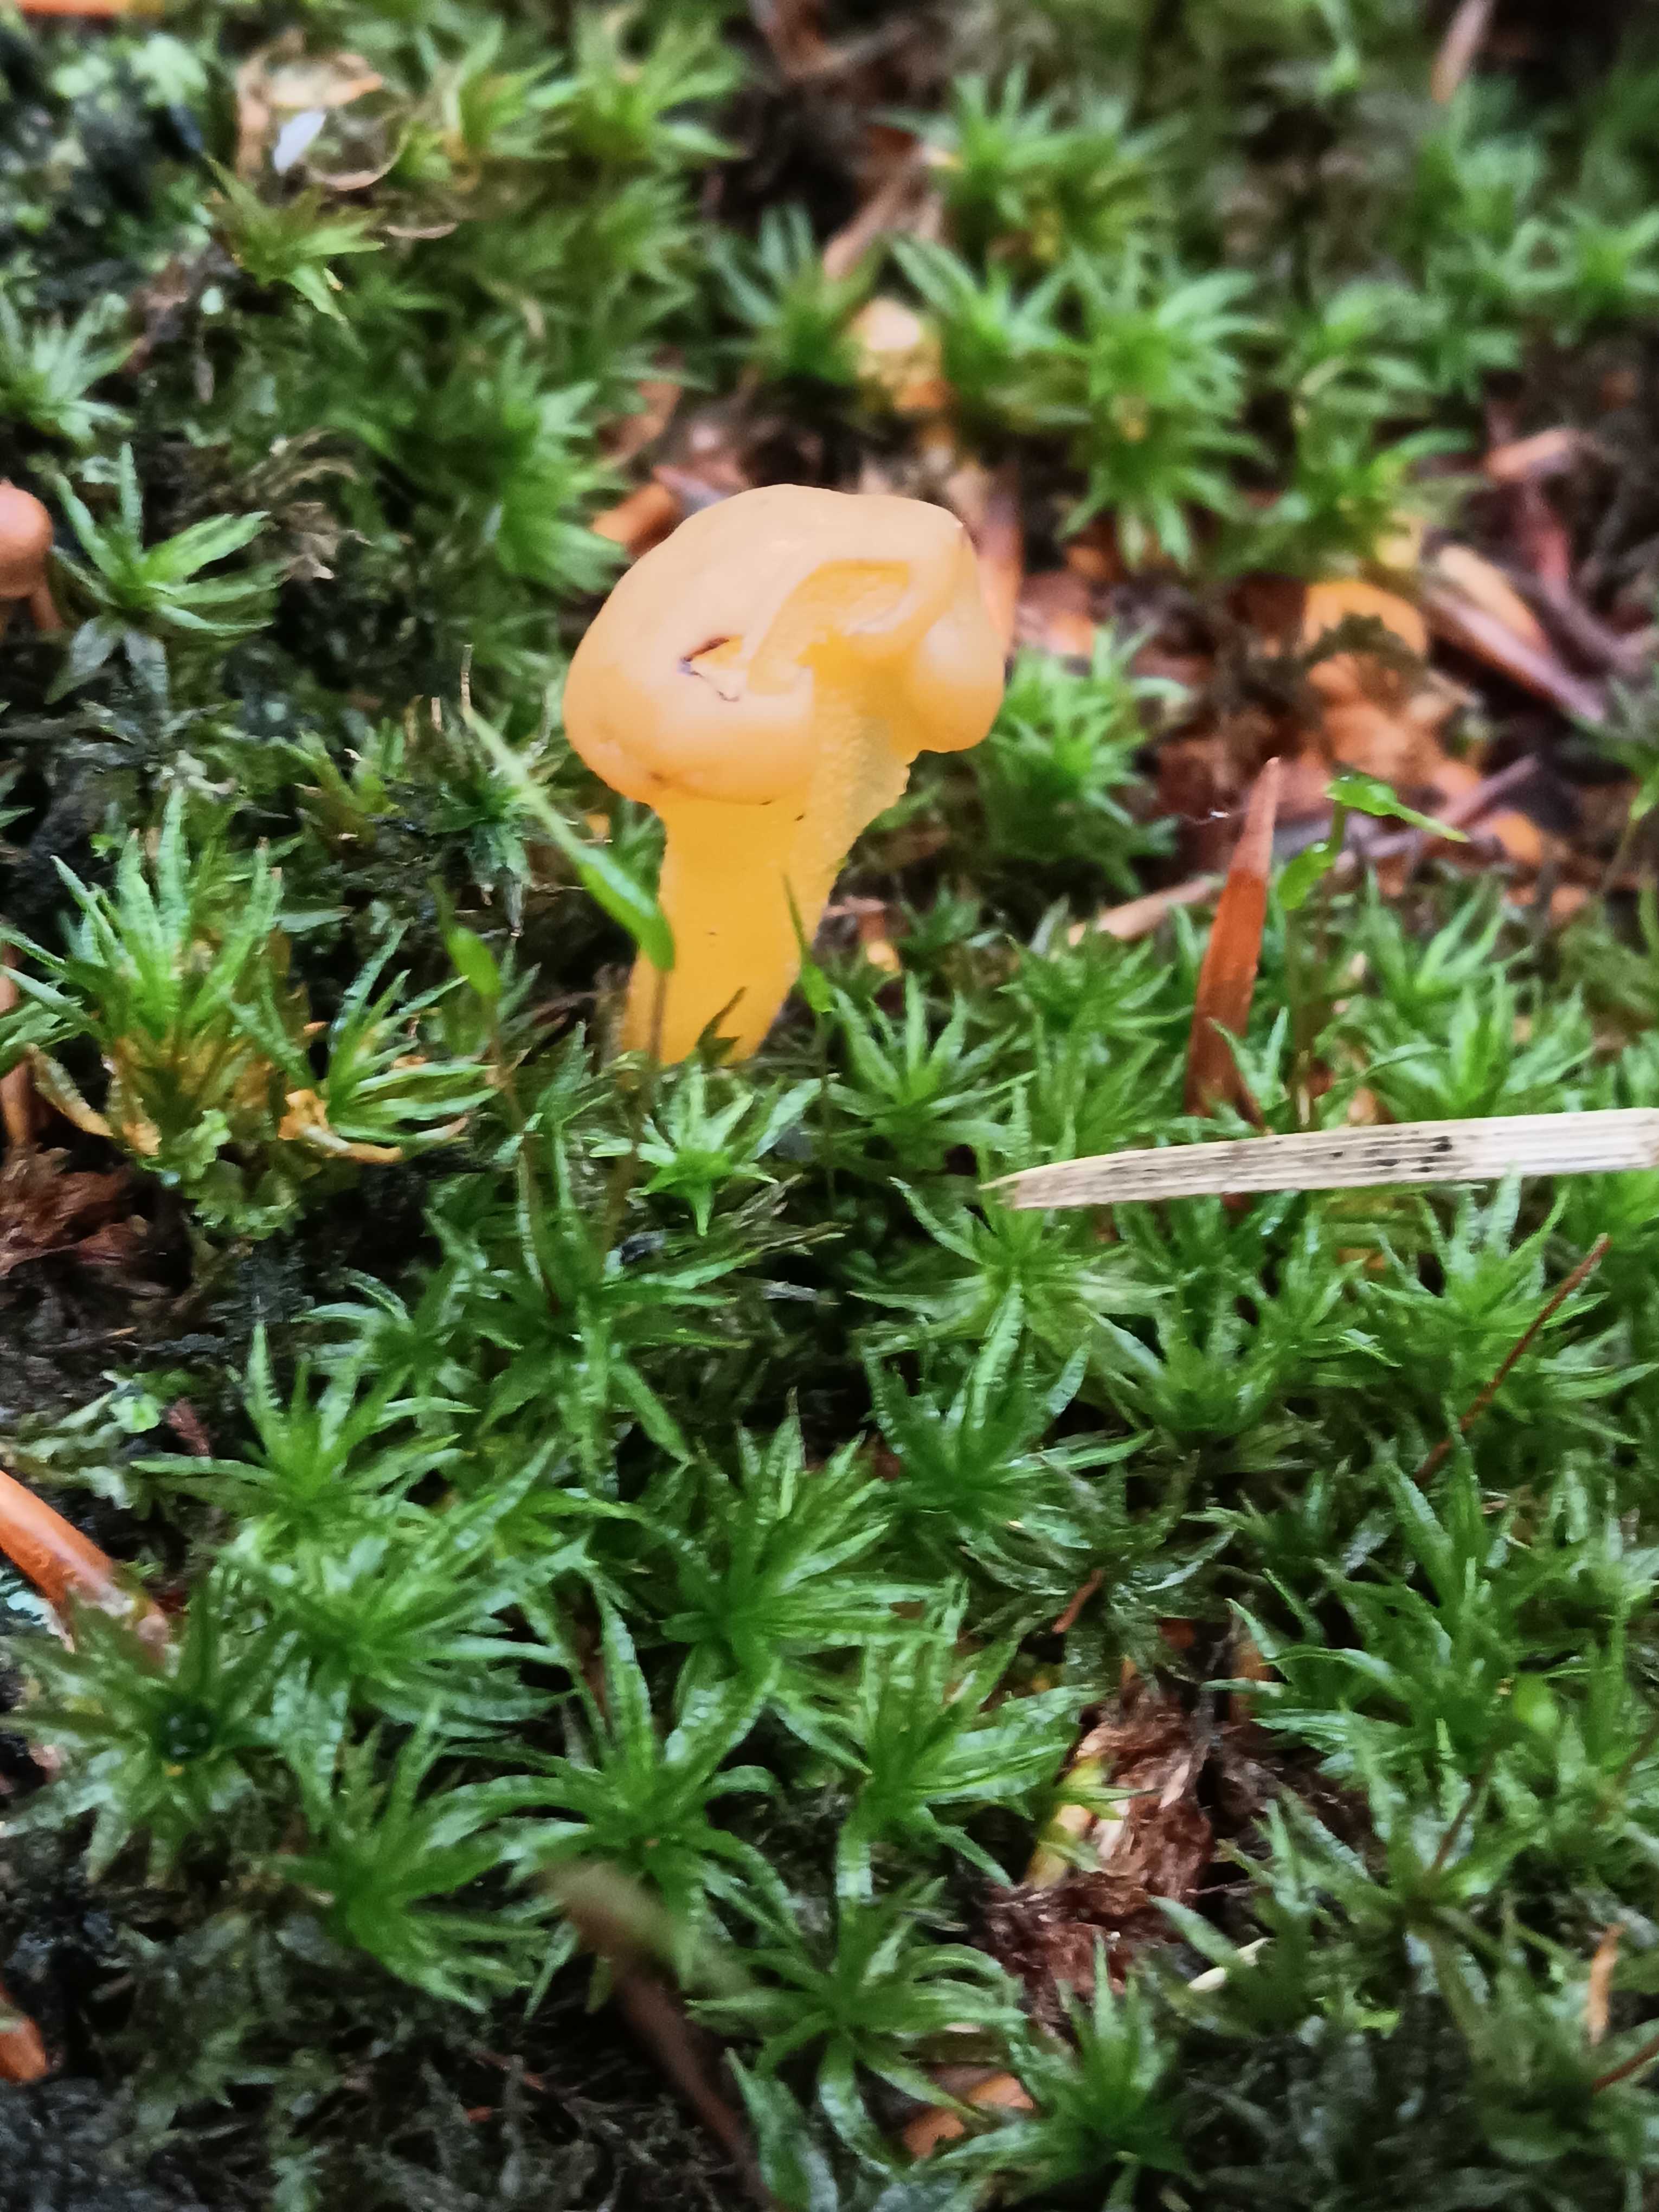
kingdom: Fungi
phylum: Ascomycota
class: Leotiomycetes
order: Leotiales
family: Leotiaceae
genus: Leotia
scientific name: Leotia lubrica
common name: ravsvamp
